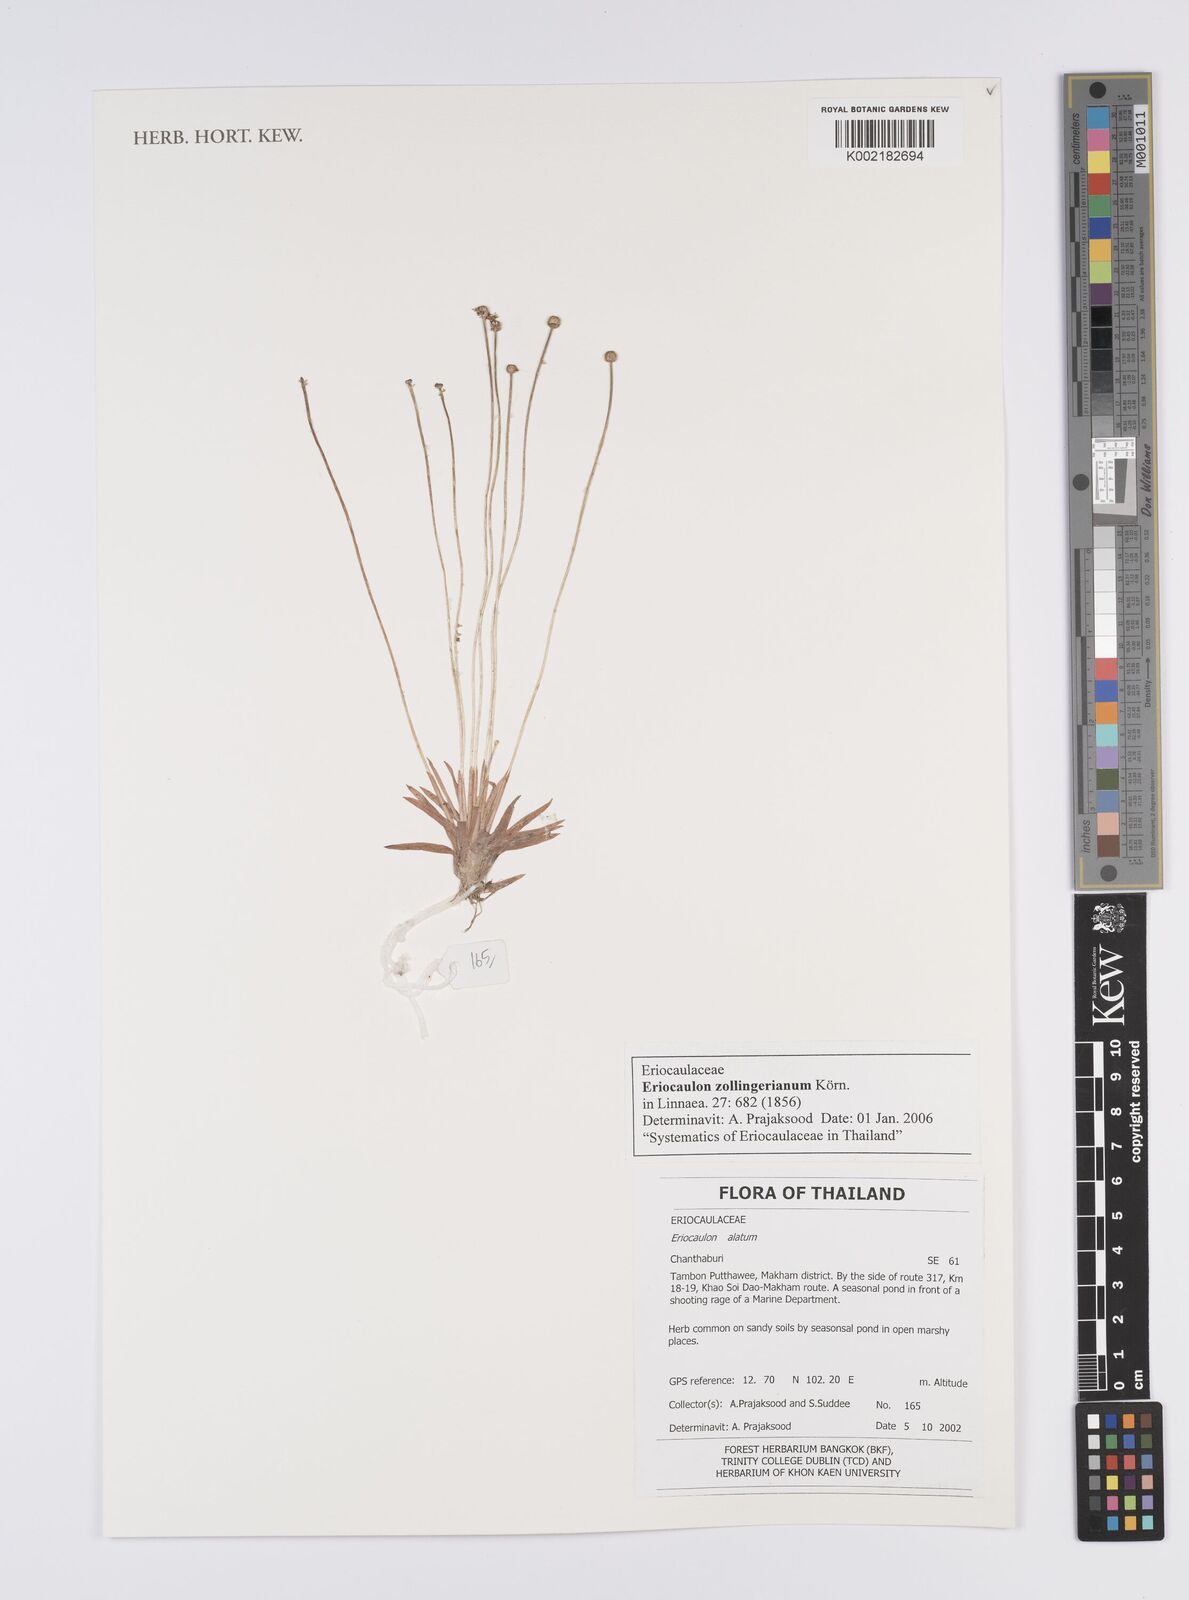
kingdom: Plantae
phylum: Tracheophyta
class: Liliopsida
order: Poales
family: Eriocaulaceae
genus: Eriocaulon
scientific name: Eriocaulon zollingerianum
